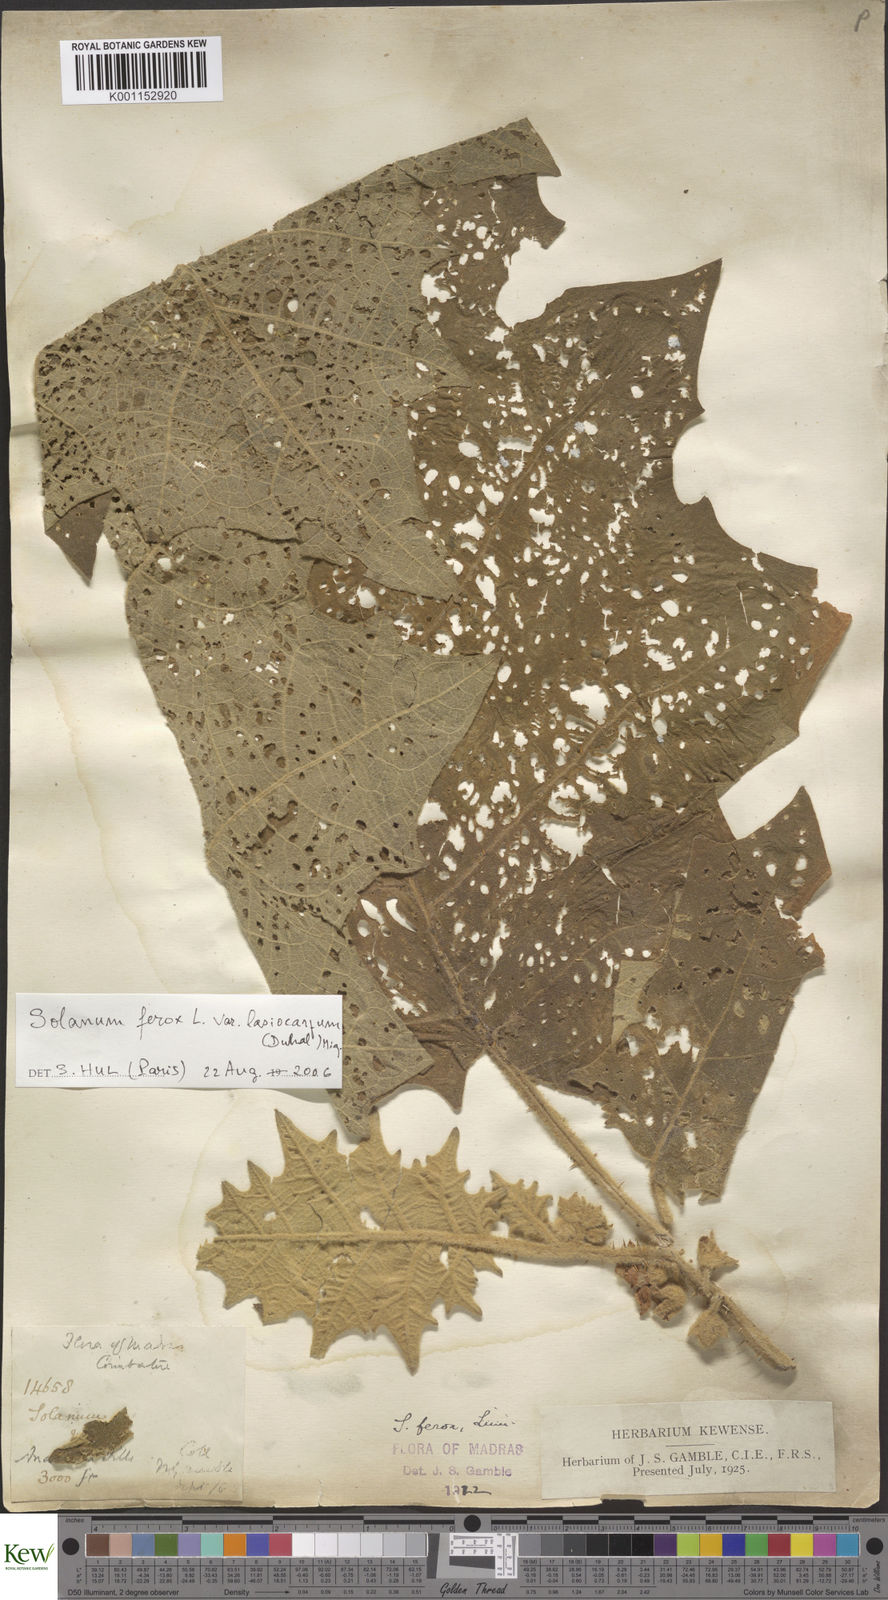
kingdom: Plantae
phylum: Tracheophyta
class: Magnoliopsida
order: Solanales
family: Solanaceae
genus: Solanum
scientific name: Solanum
